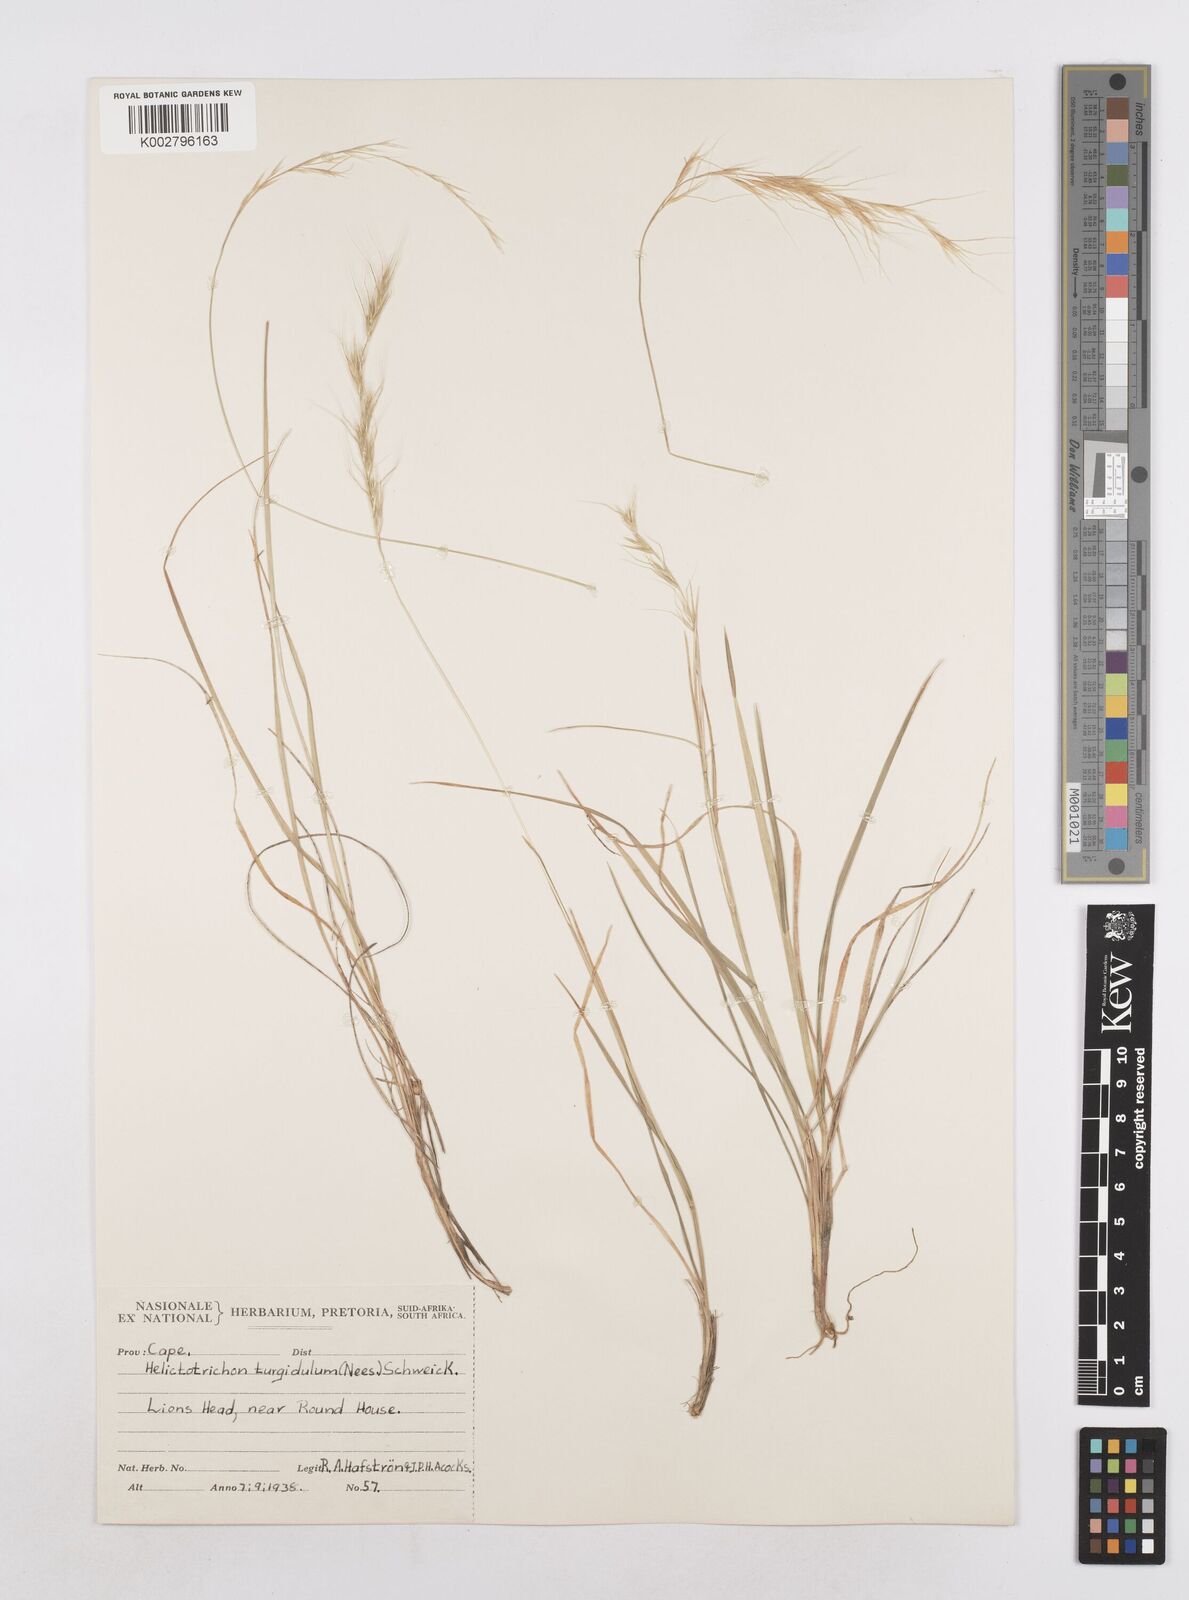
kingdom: Plantae
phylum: Tracheophyta
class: Liliopsida
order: Poales
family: Poaceae
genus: Trisetopsis
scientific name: Trisetopsis imberbis
